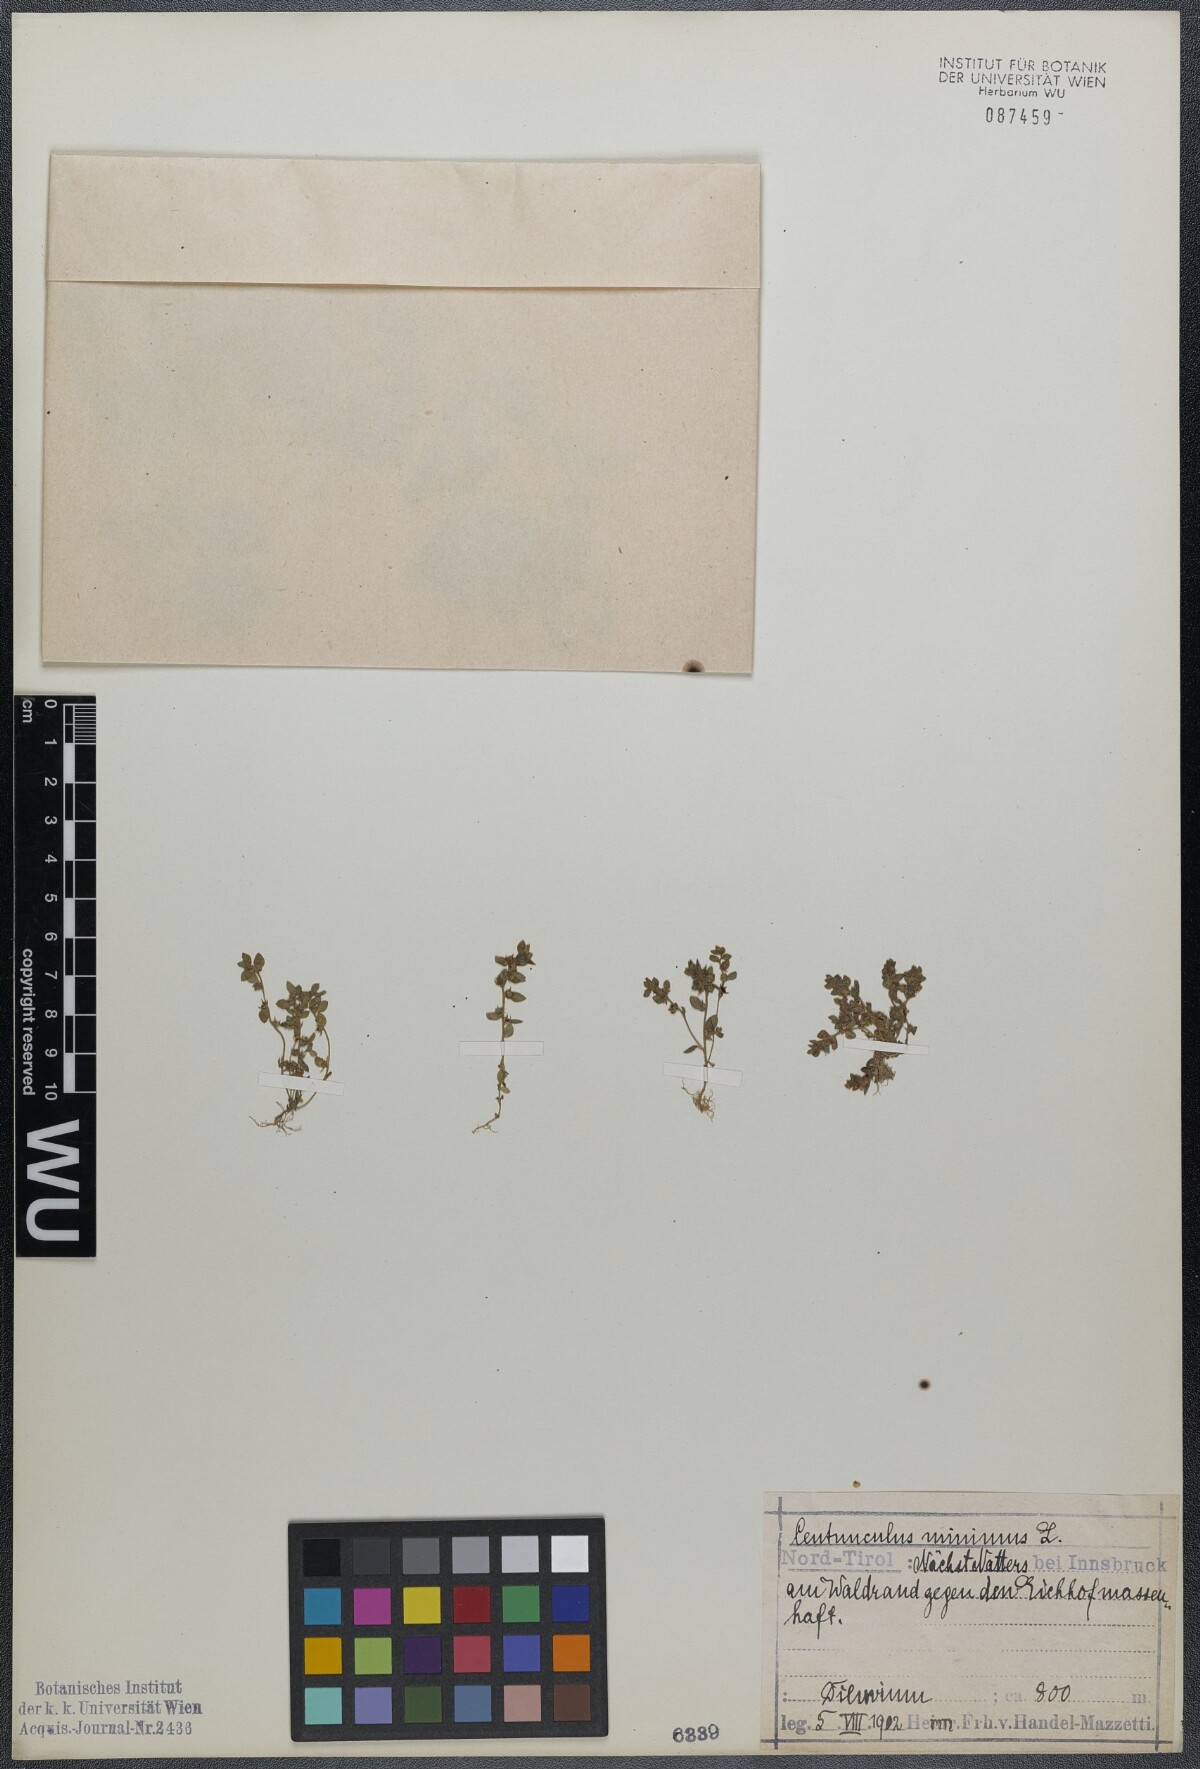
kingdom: Plantae
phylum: Tracheophyta
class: Magnoliopsida
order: Ericales
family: Primulaceae
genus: Lysimachia
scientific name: Lysimachia minima
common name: Chaffweed
